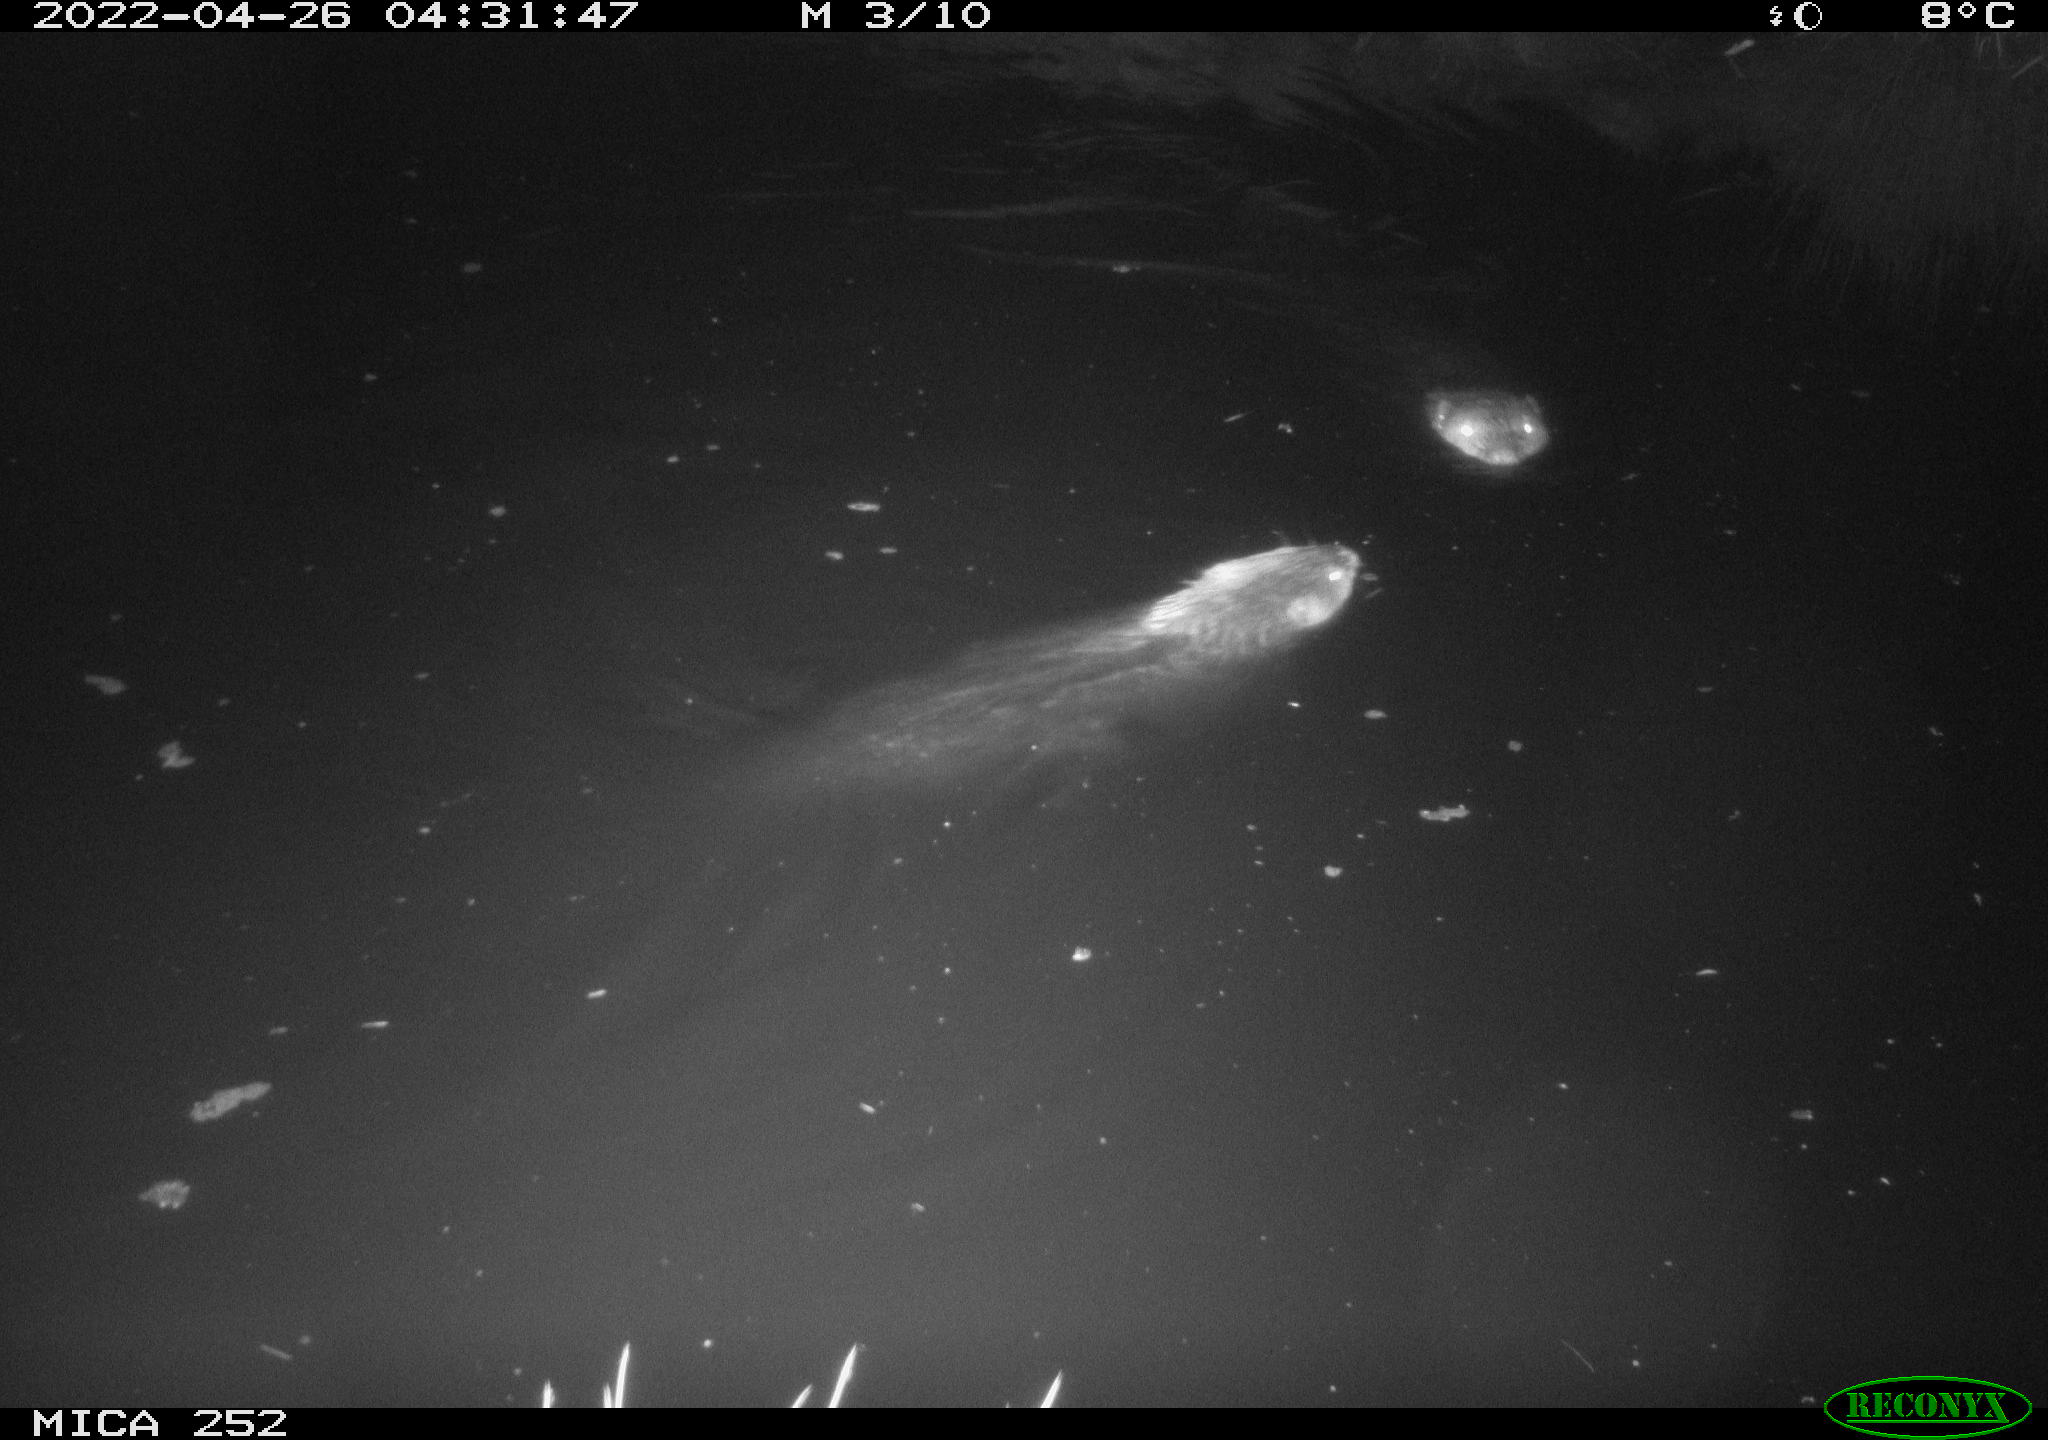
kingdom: Animalia
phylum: Chordata
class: Mammalia
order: Rodentia
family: Castoridae
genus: Castor
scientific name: Castor fiber
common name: Eurasian beaver
